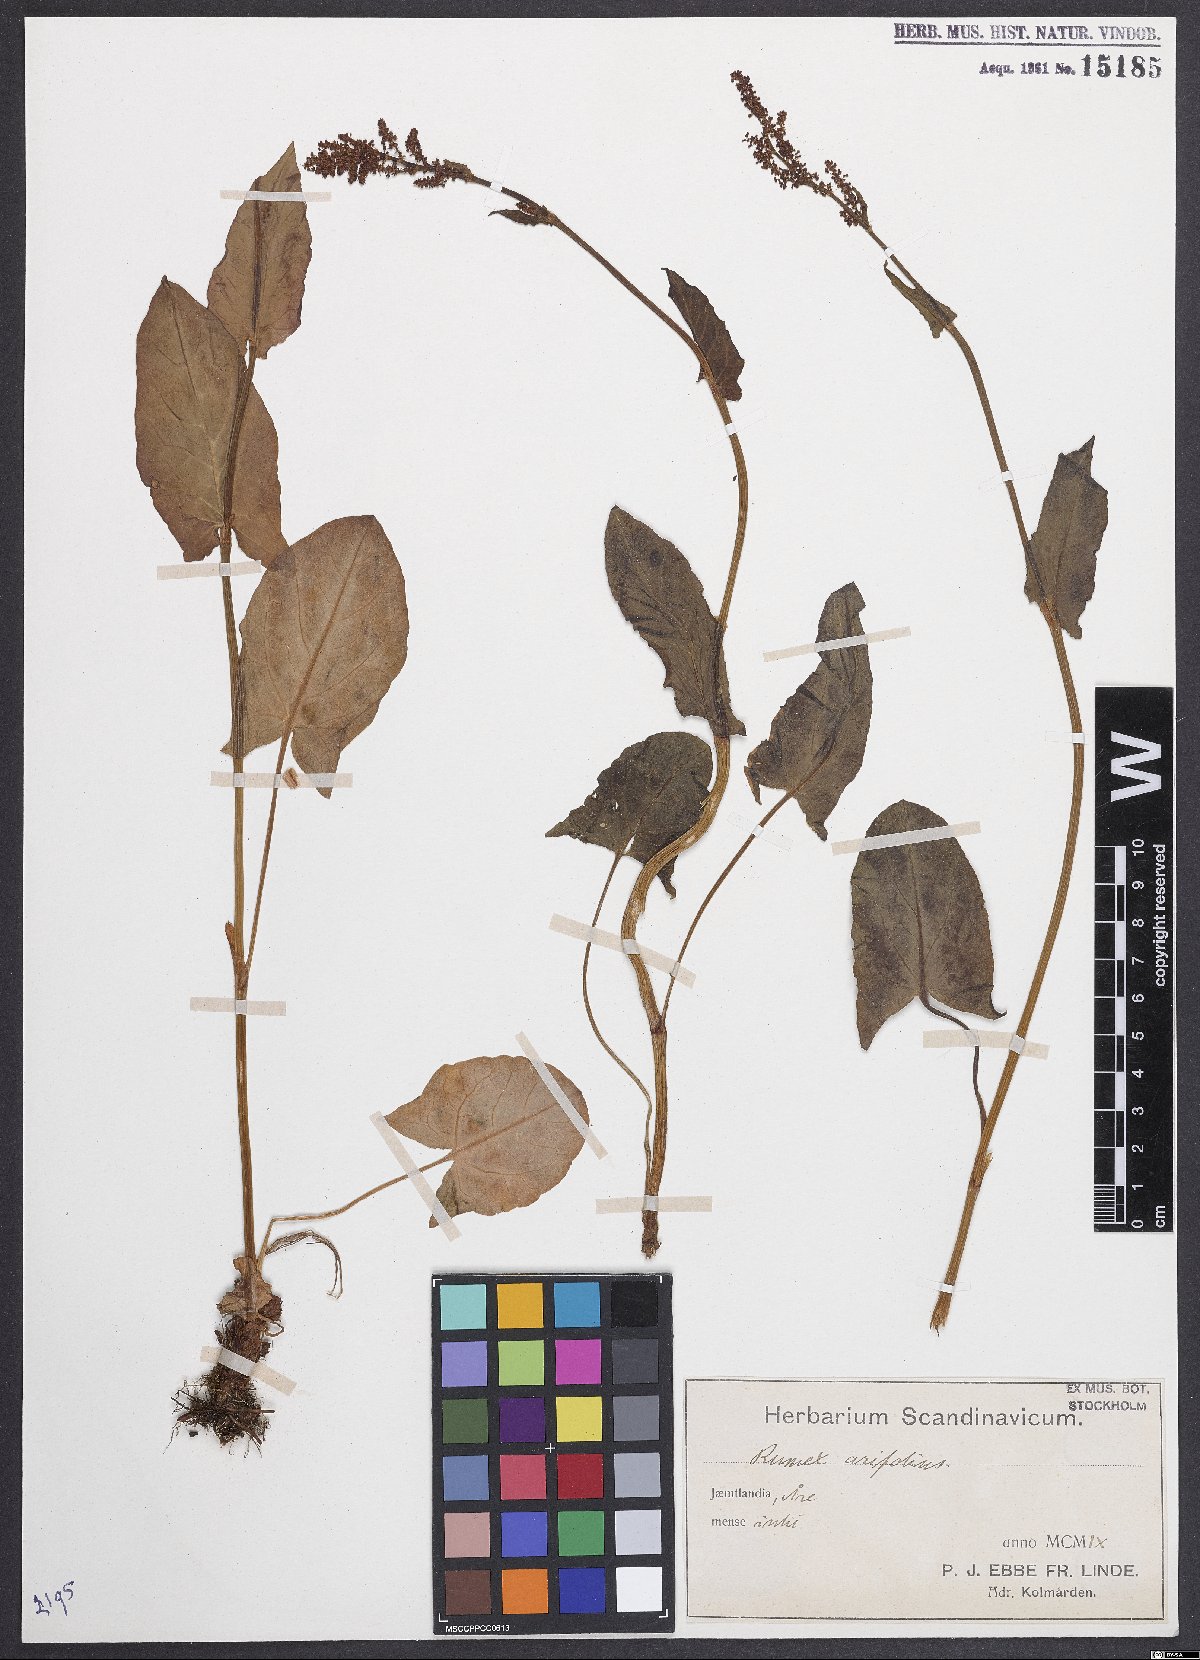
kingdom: Plantae
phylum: Tracheophyta
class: Magnoliopsida
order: Caryophyllales
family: Polygonaceae
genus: Rumex
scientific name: Rumex arifolius
